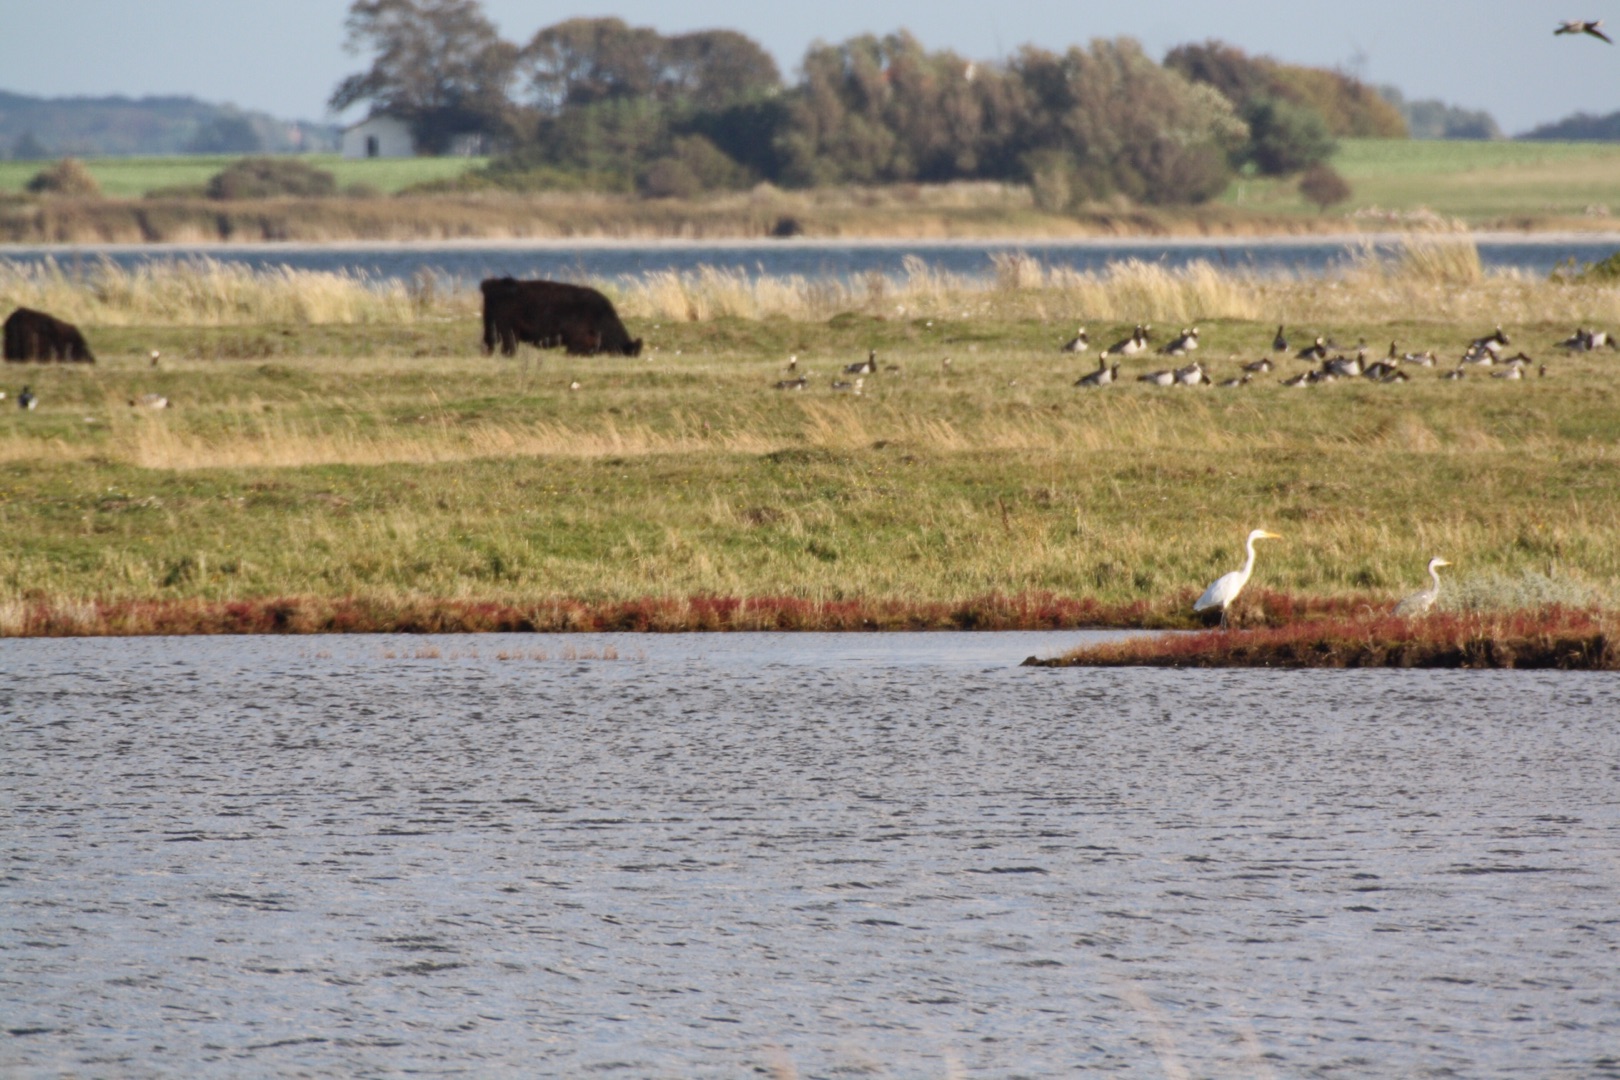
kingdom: Animalia
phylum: Chordata
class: Aves
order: Pelecaniformes
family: Ardeidae
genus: Ardea
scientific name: Ardea alba
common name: Sølvhejre
